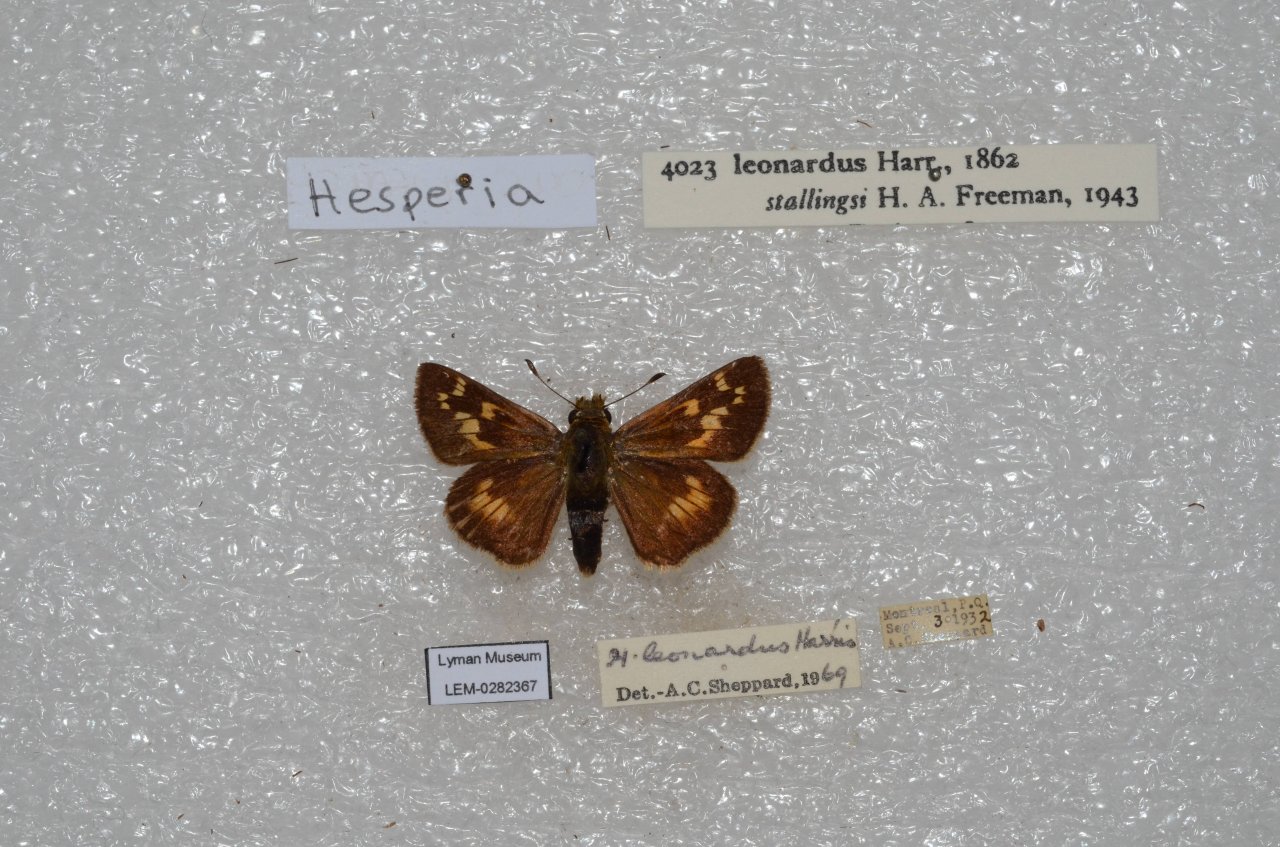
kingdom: Animalia
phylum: Arthropoda
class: Insecta
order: Lepidoptera
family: Hesperiidae
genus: Hesperia
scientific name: Hesperia leonardus
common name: Leonard's Skipper
